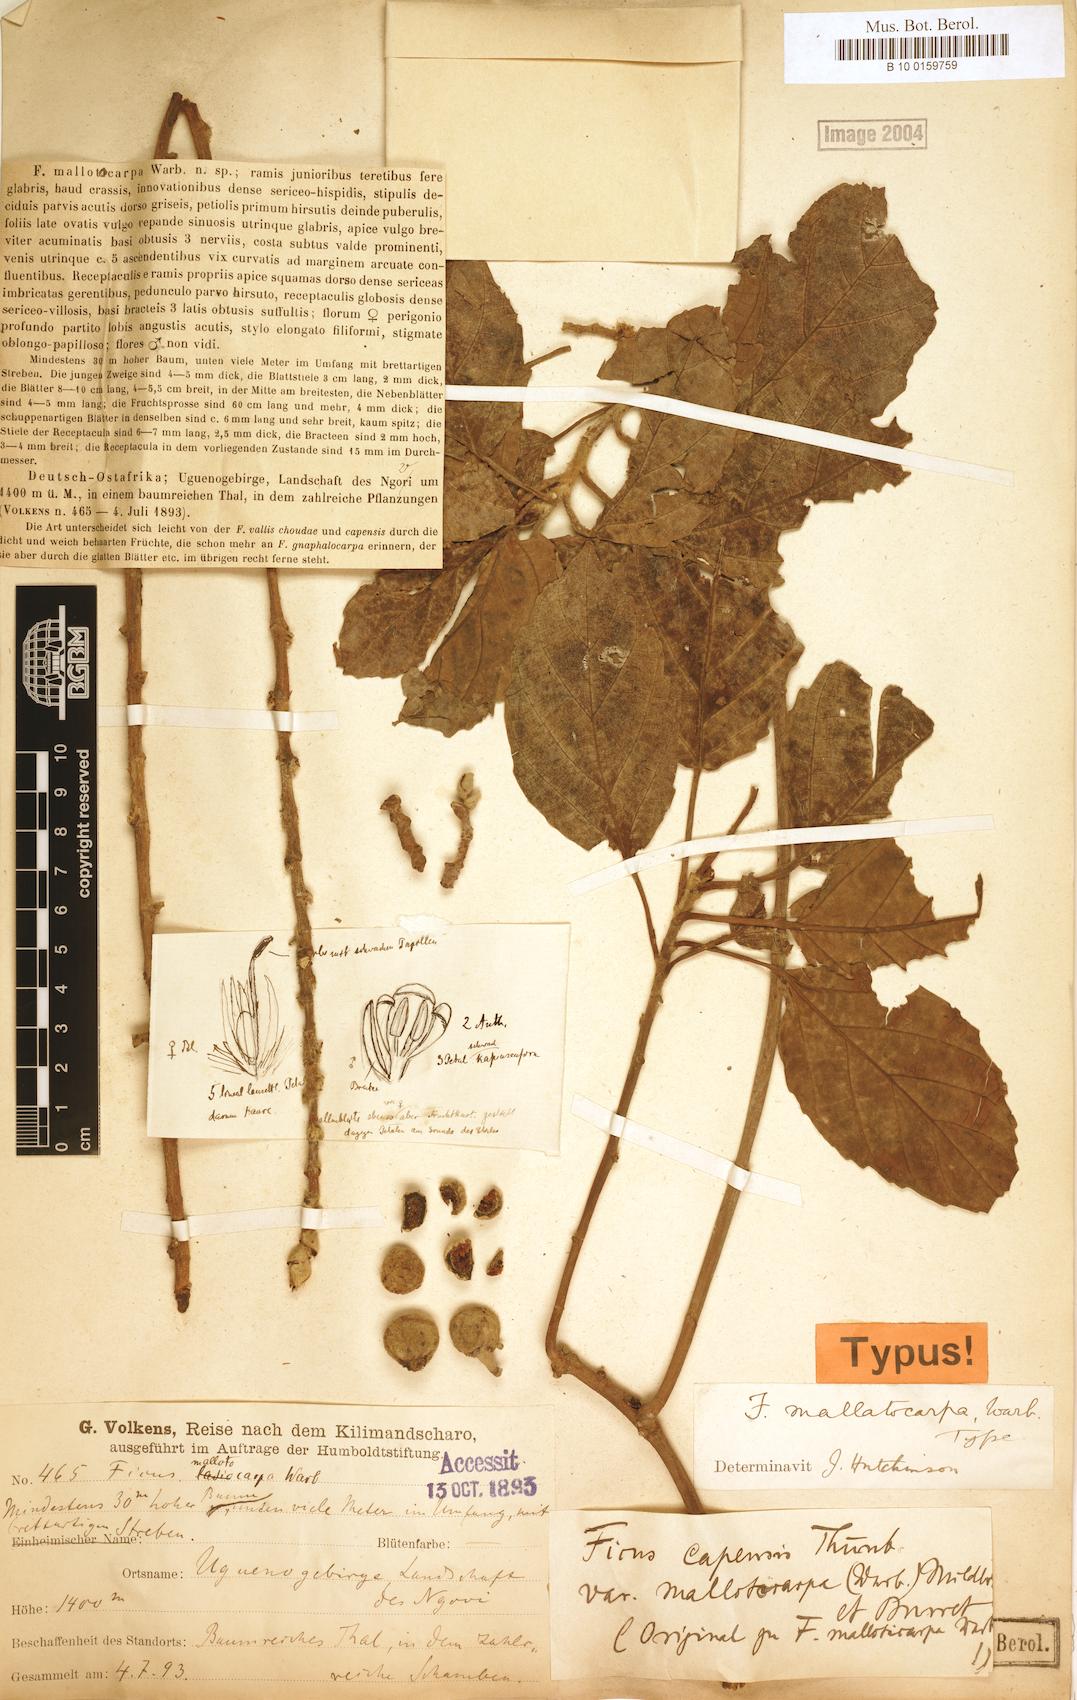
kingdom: Plantae
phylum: Tracheophyta
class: Magnoliopsida
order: Rosales
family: Moraceae
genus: Ficus
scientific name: Ficus sur
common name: Cape fig
